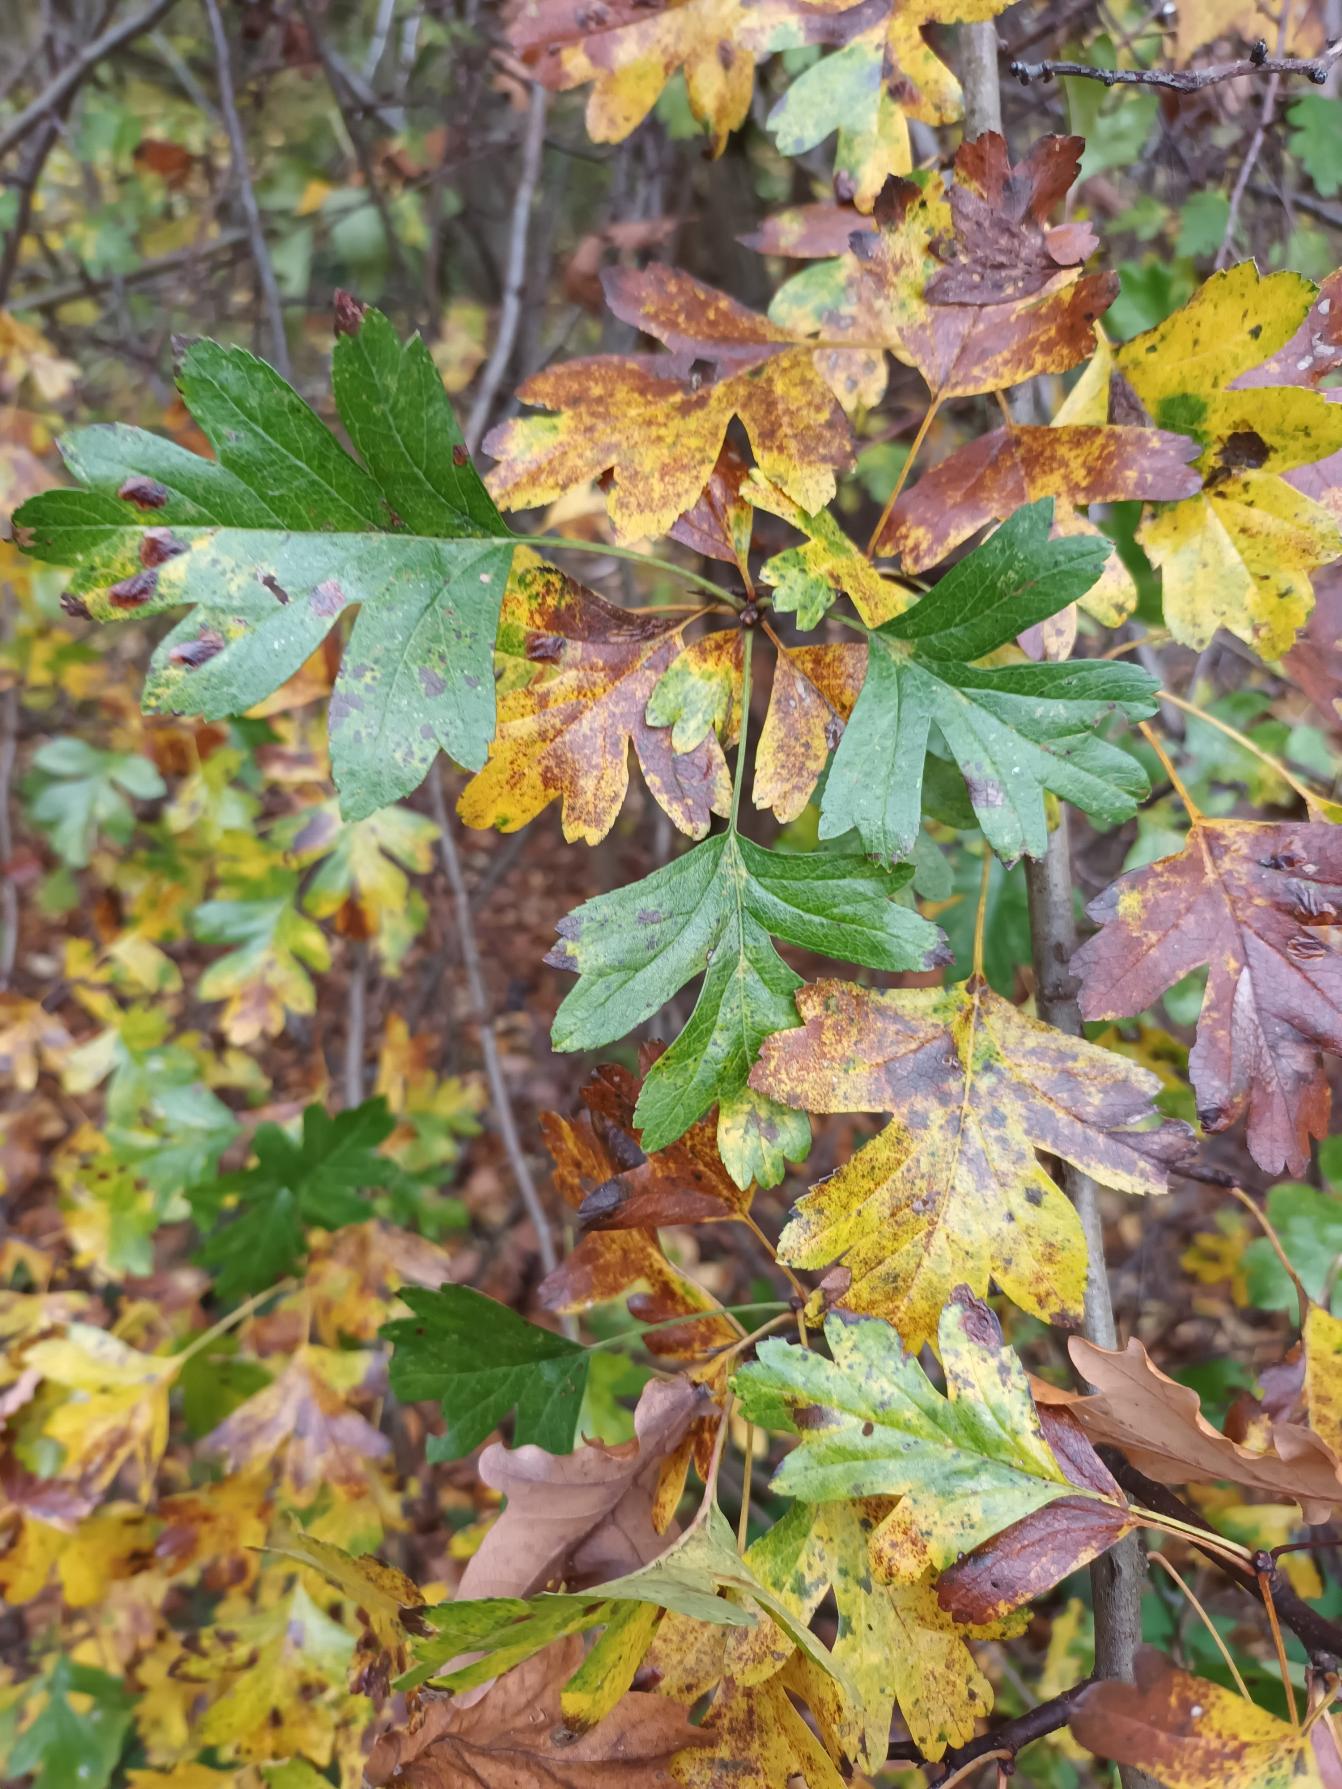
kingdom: Plantae
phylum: Tracheophyta
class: Magnoliopsida
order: Rosales
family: Rosaceae
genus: Crataegus
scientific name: Crataegus monogyna
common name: Engriflet hvidtjørn
